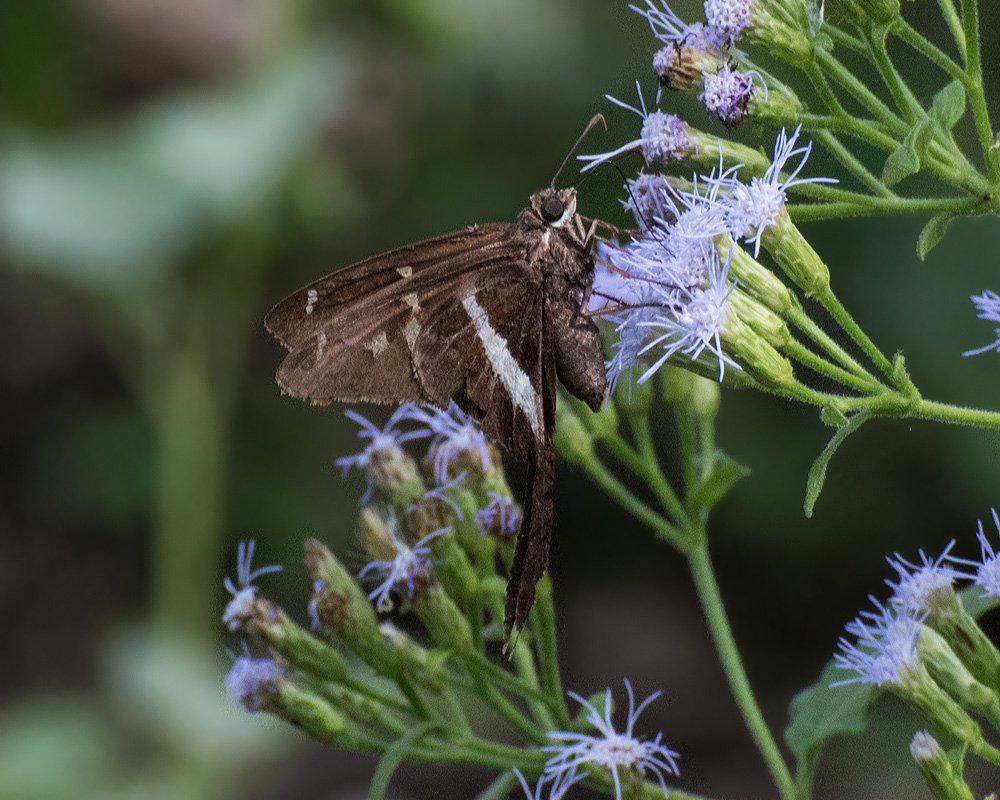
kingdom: Animalia
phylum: Arthropoda
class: Insecta
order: Lepidoptera
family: Hesperiidae
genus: Chioides
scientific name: Chioides catillus
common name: White-striped Longtail
